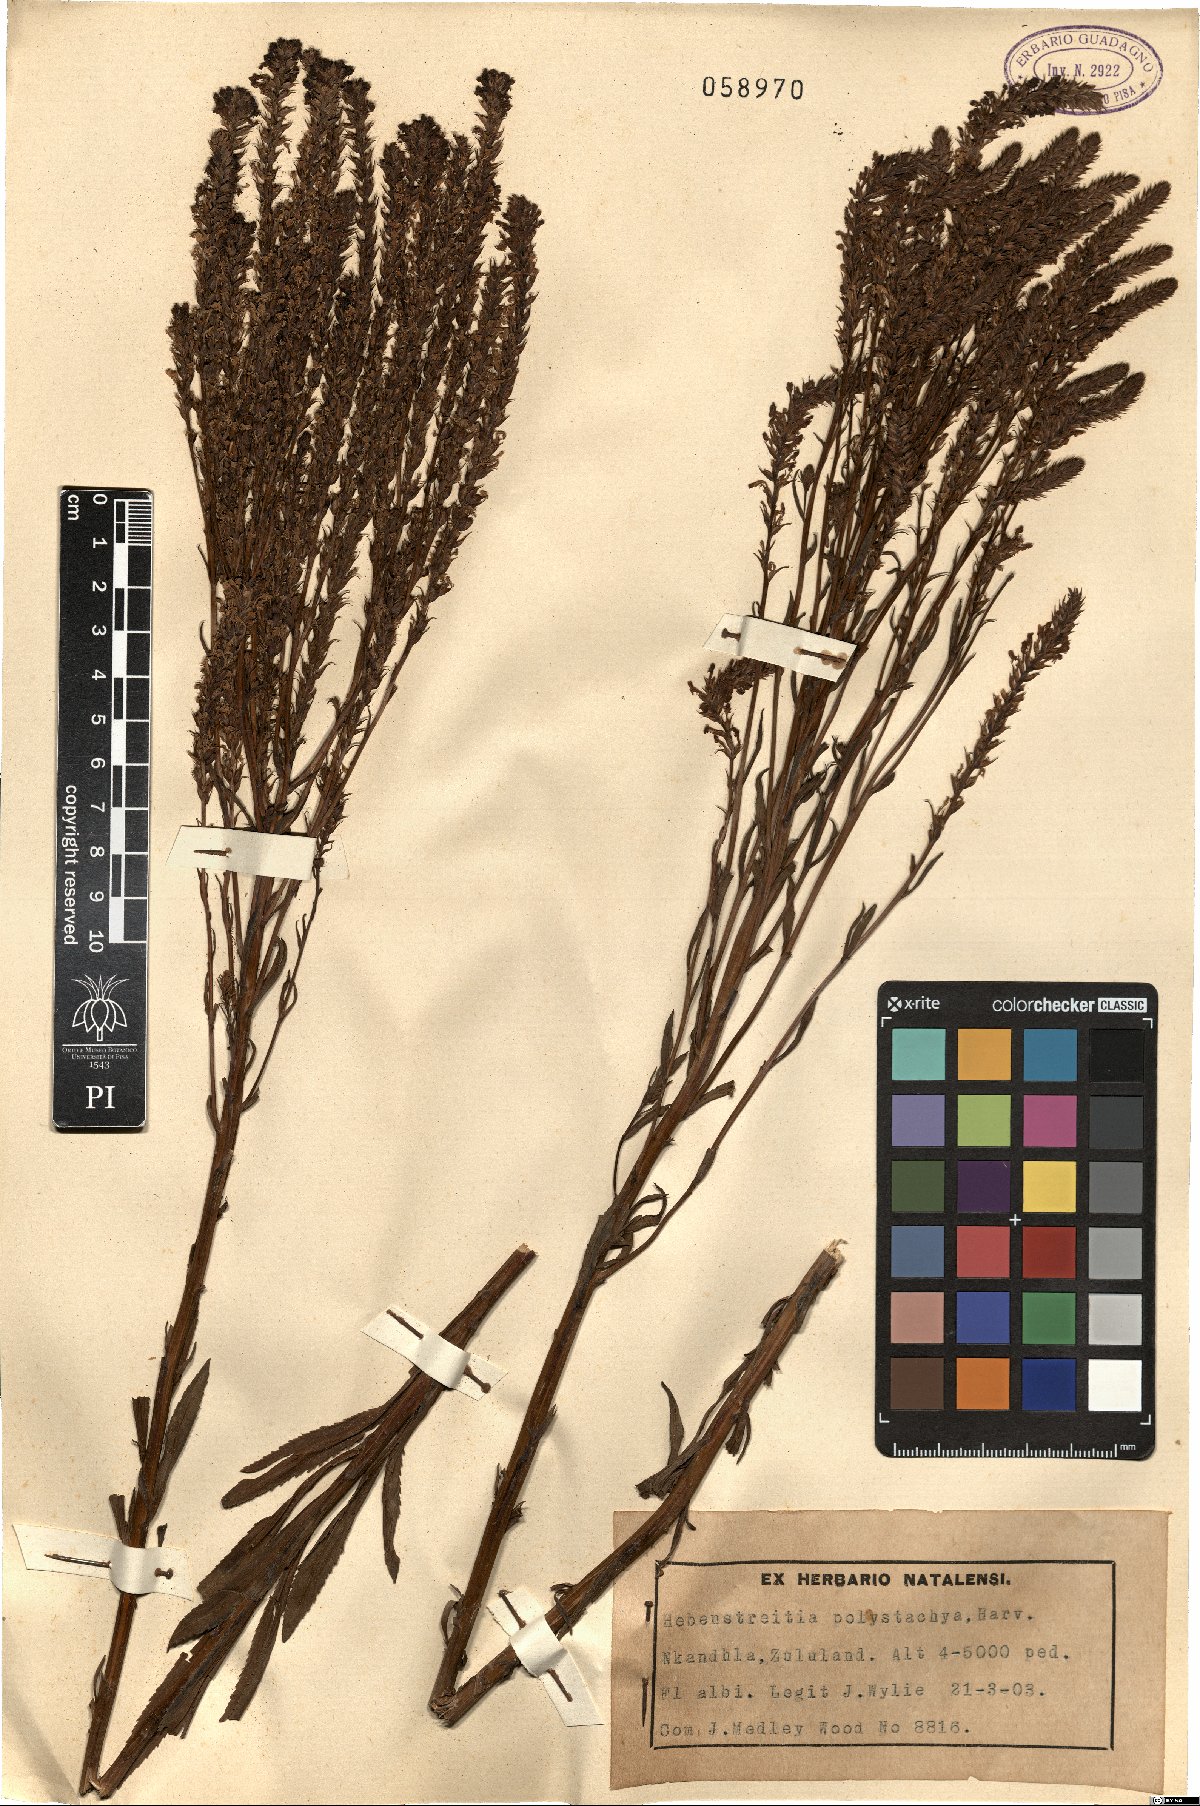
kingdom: Plantae
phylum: Tracheophyta
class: Magnoliopsida
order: Lamiales
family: Scrophulariaceae
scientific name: Scrophulariaceae
